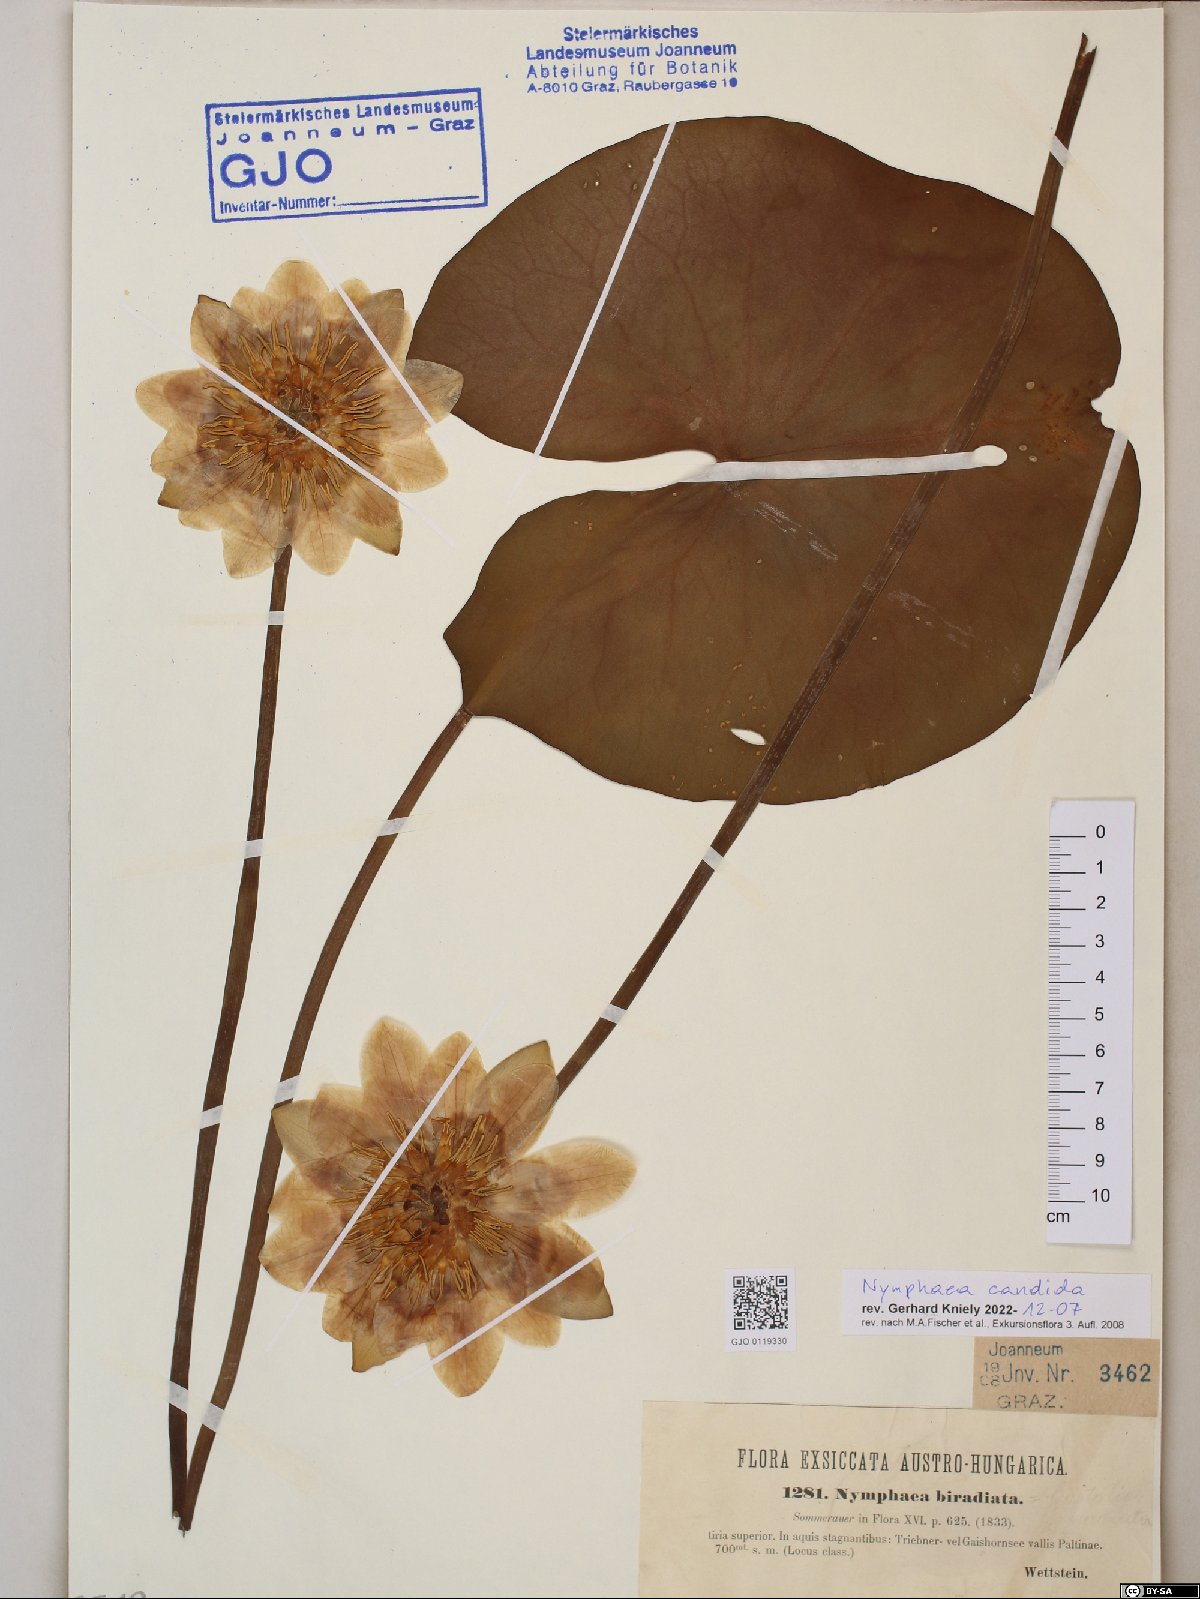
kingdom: Plantae
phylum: Tracheophyta
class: Magnoliopsida
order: Nymphaeales
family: Nymphaeaceae
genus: Nymphaea
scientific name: Nymphaea candida
